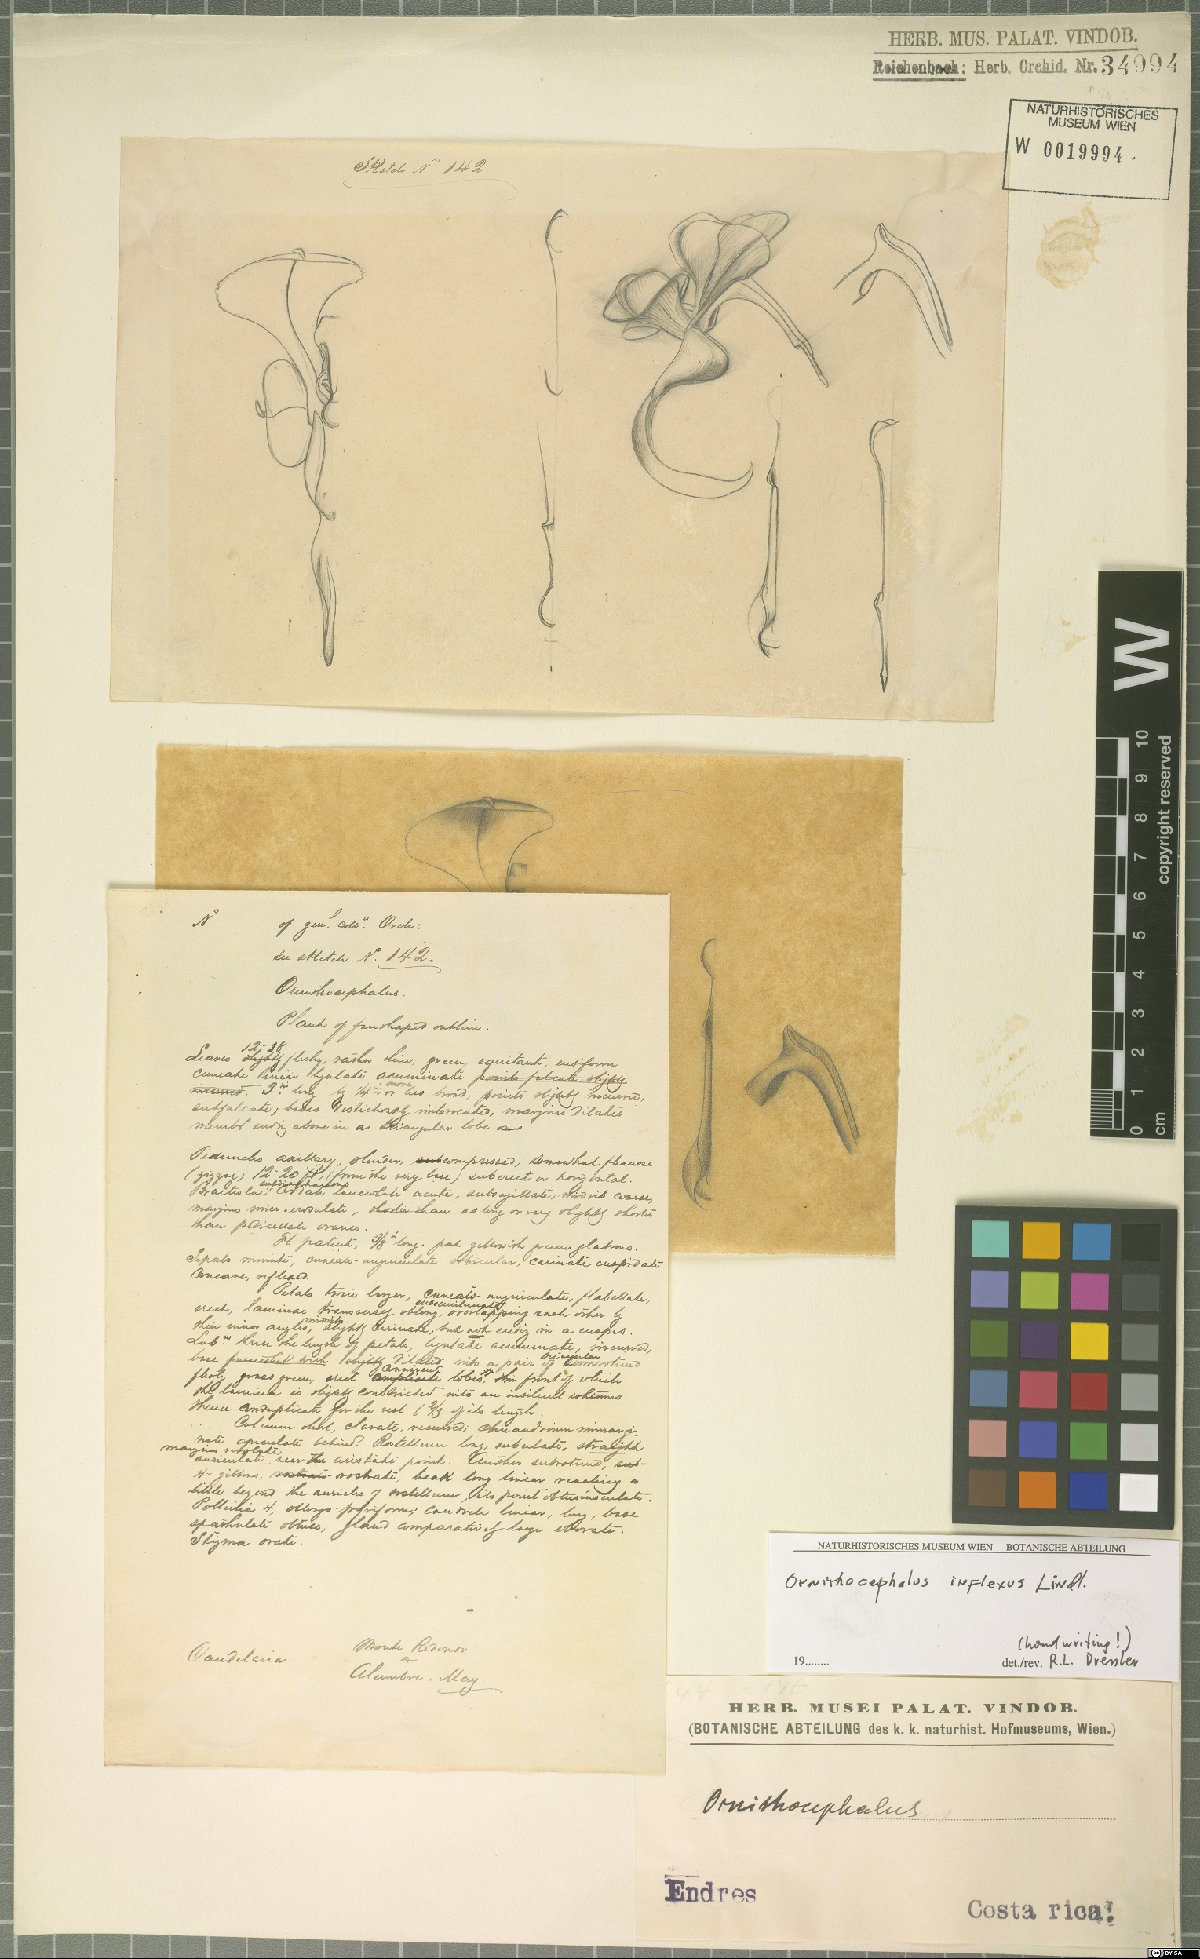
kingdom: Plantae
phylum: Tracheophyta
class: Liliopsida
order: Asparagales
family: Orchidaceae
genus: Ornithocephalus
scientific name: Ornithocephalus inflexus
